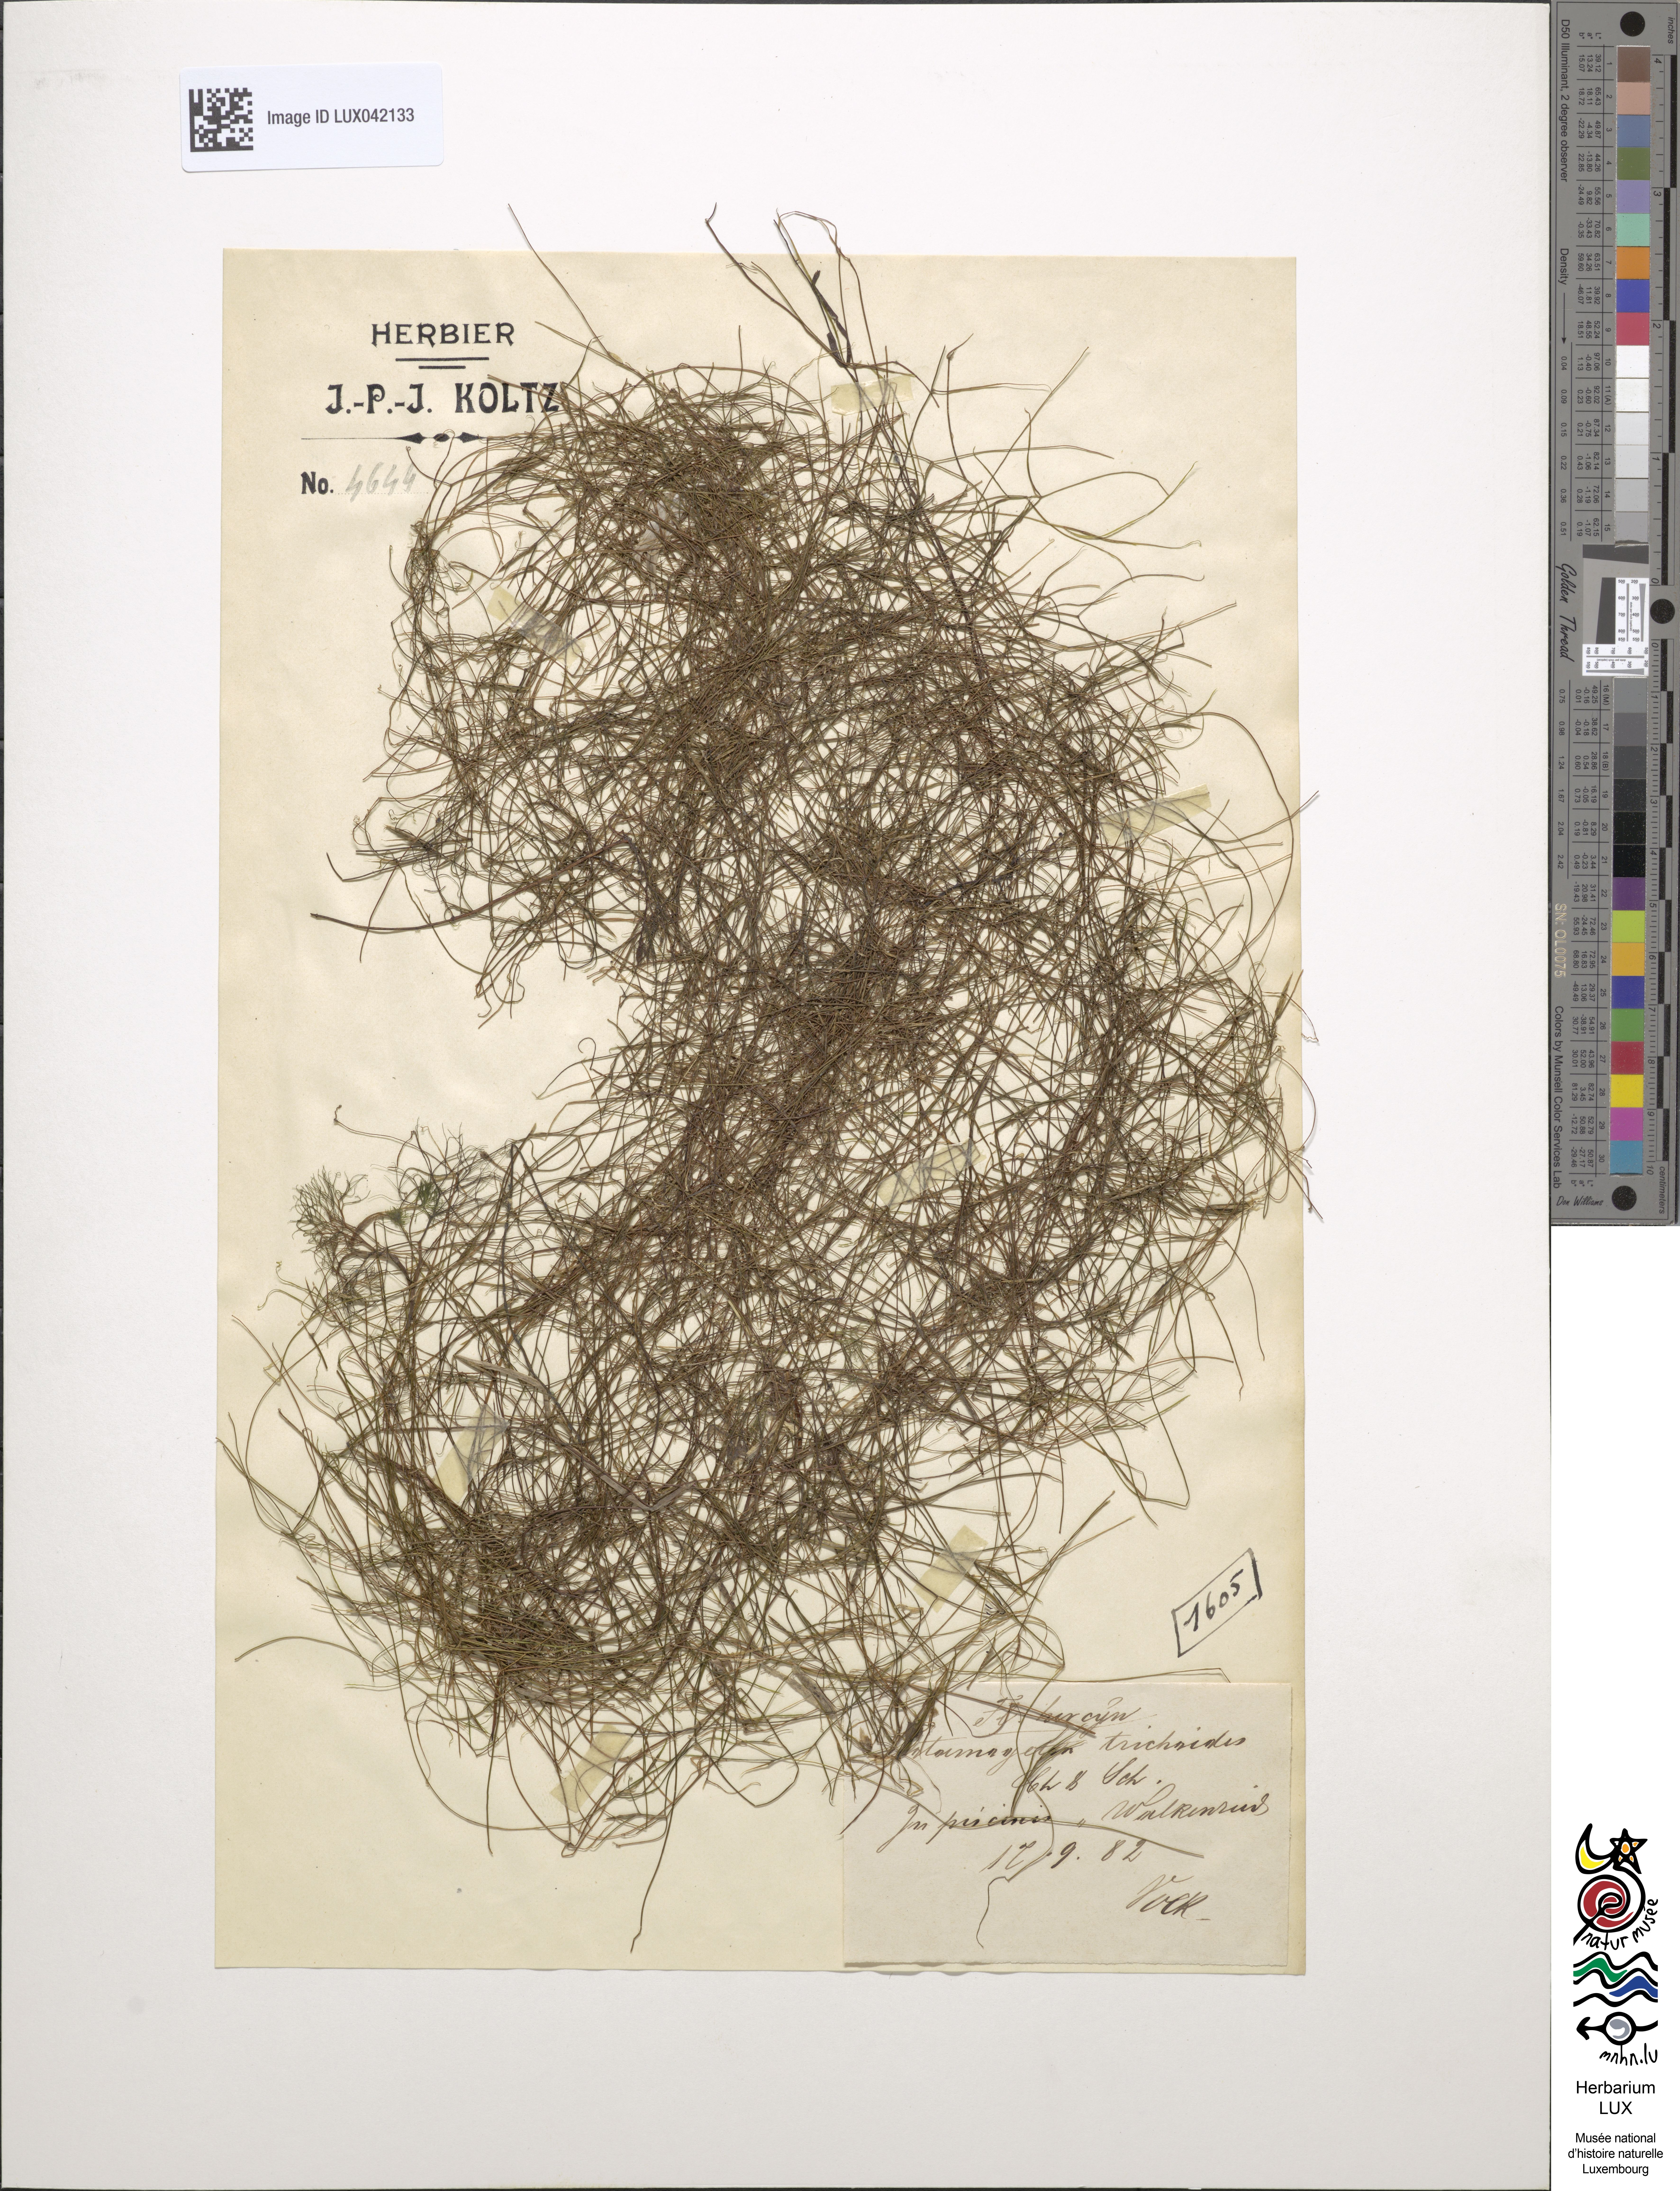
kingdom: Plantae
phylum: Tracheophyta
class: Liliopsida
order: Alismatales
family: Potamogetonaceae
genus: Potamogeton
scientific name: Potamogeton trichoides
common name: Hairlike pondweed
